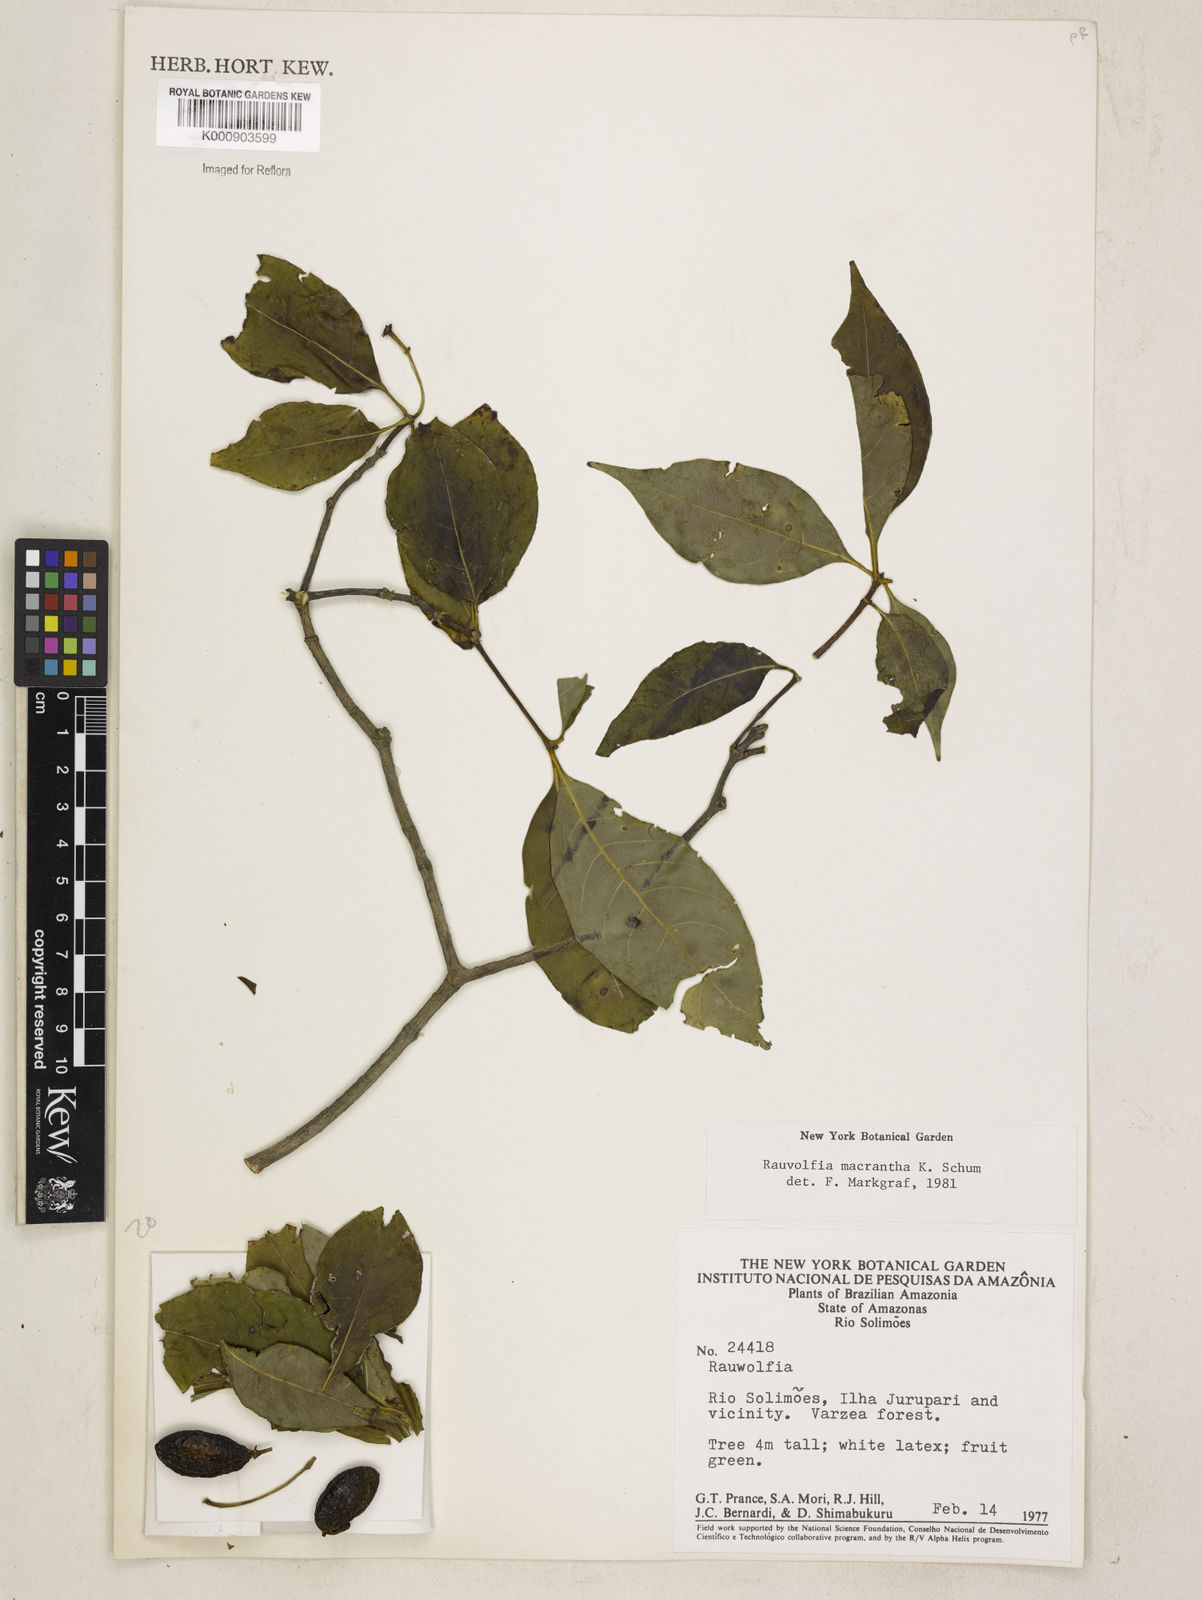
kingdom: Plantae
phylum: Tracheophyta
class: Magnoliopsida
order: Gentianales
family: Apocynaceae
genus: Rauvolfia
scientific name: Rauvolfia macrantha
